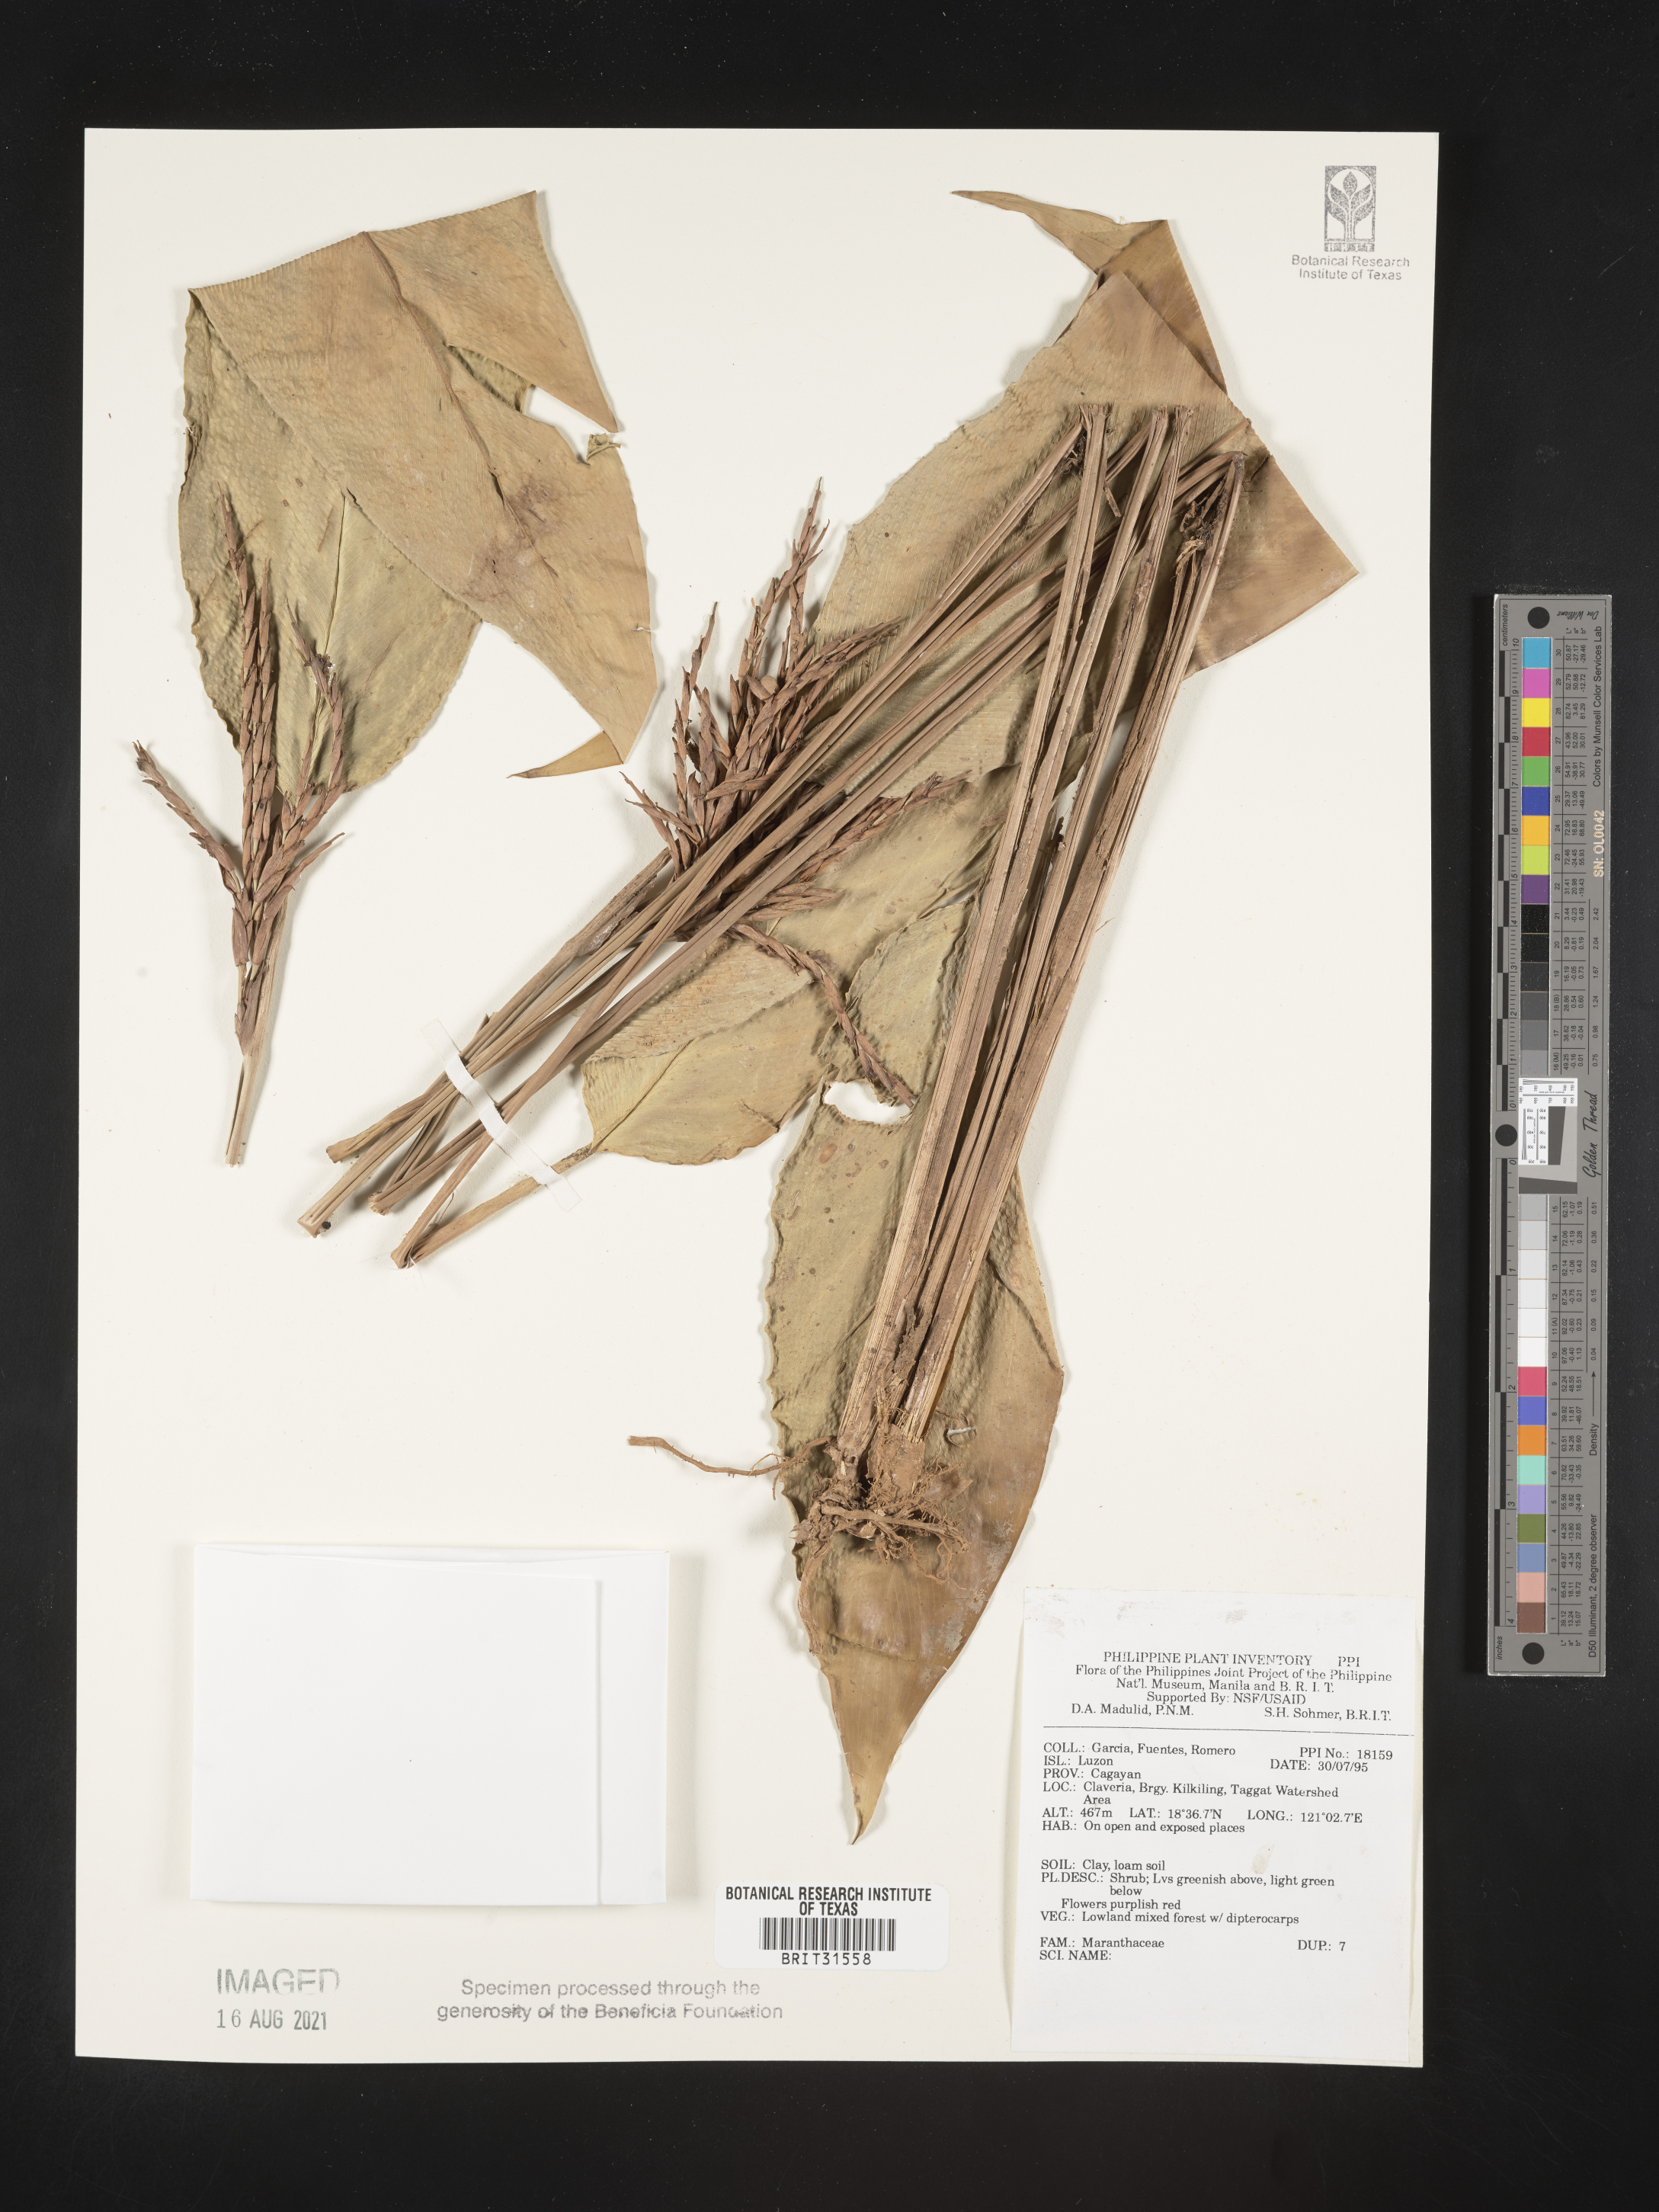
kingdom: Plantae
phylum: Tracheophyta
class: Liliopsida
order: Zingiberales
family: Marantaceae
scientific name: Marantaceae
